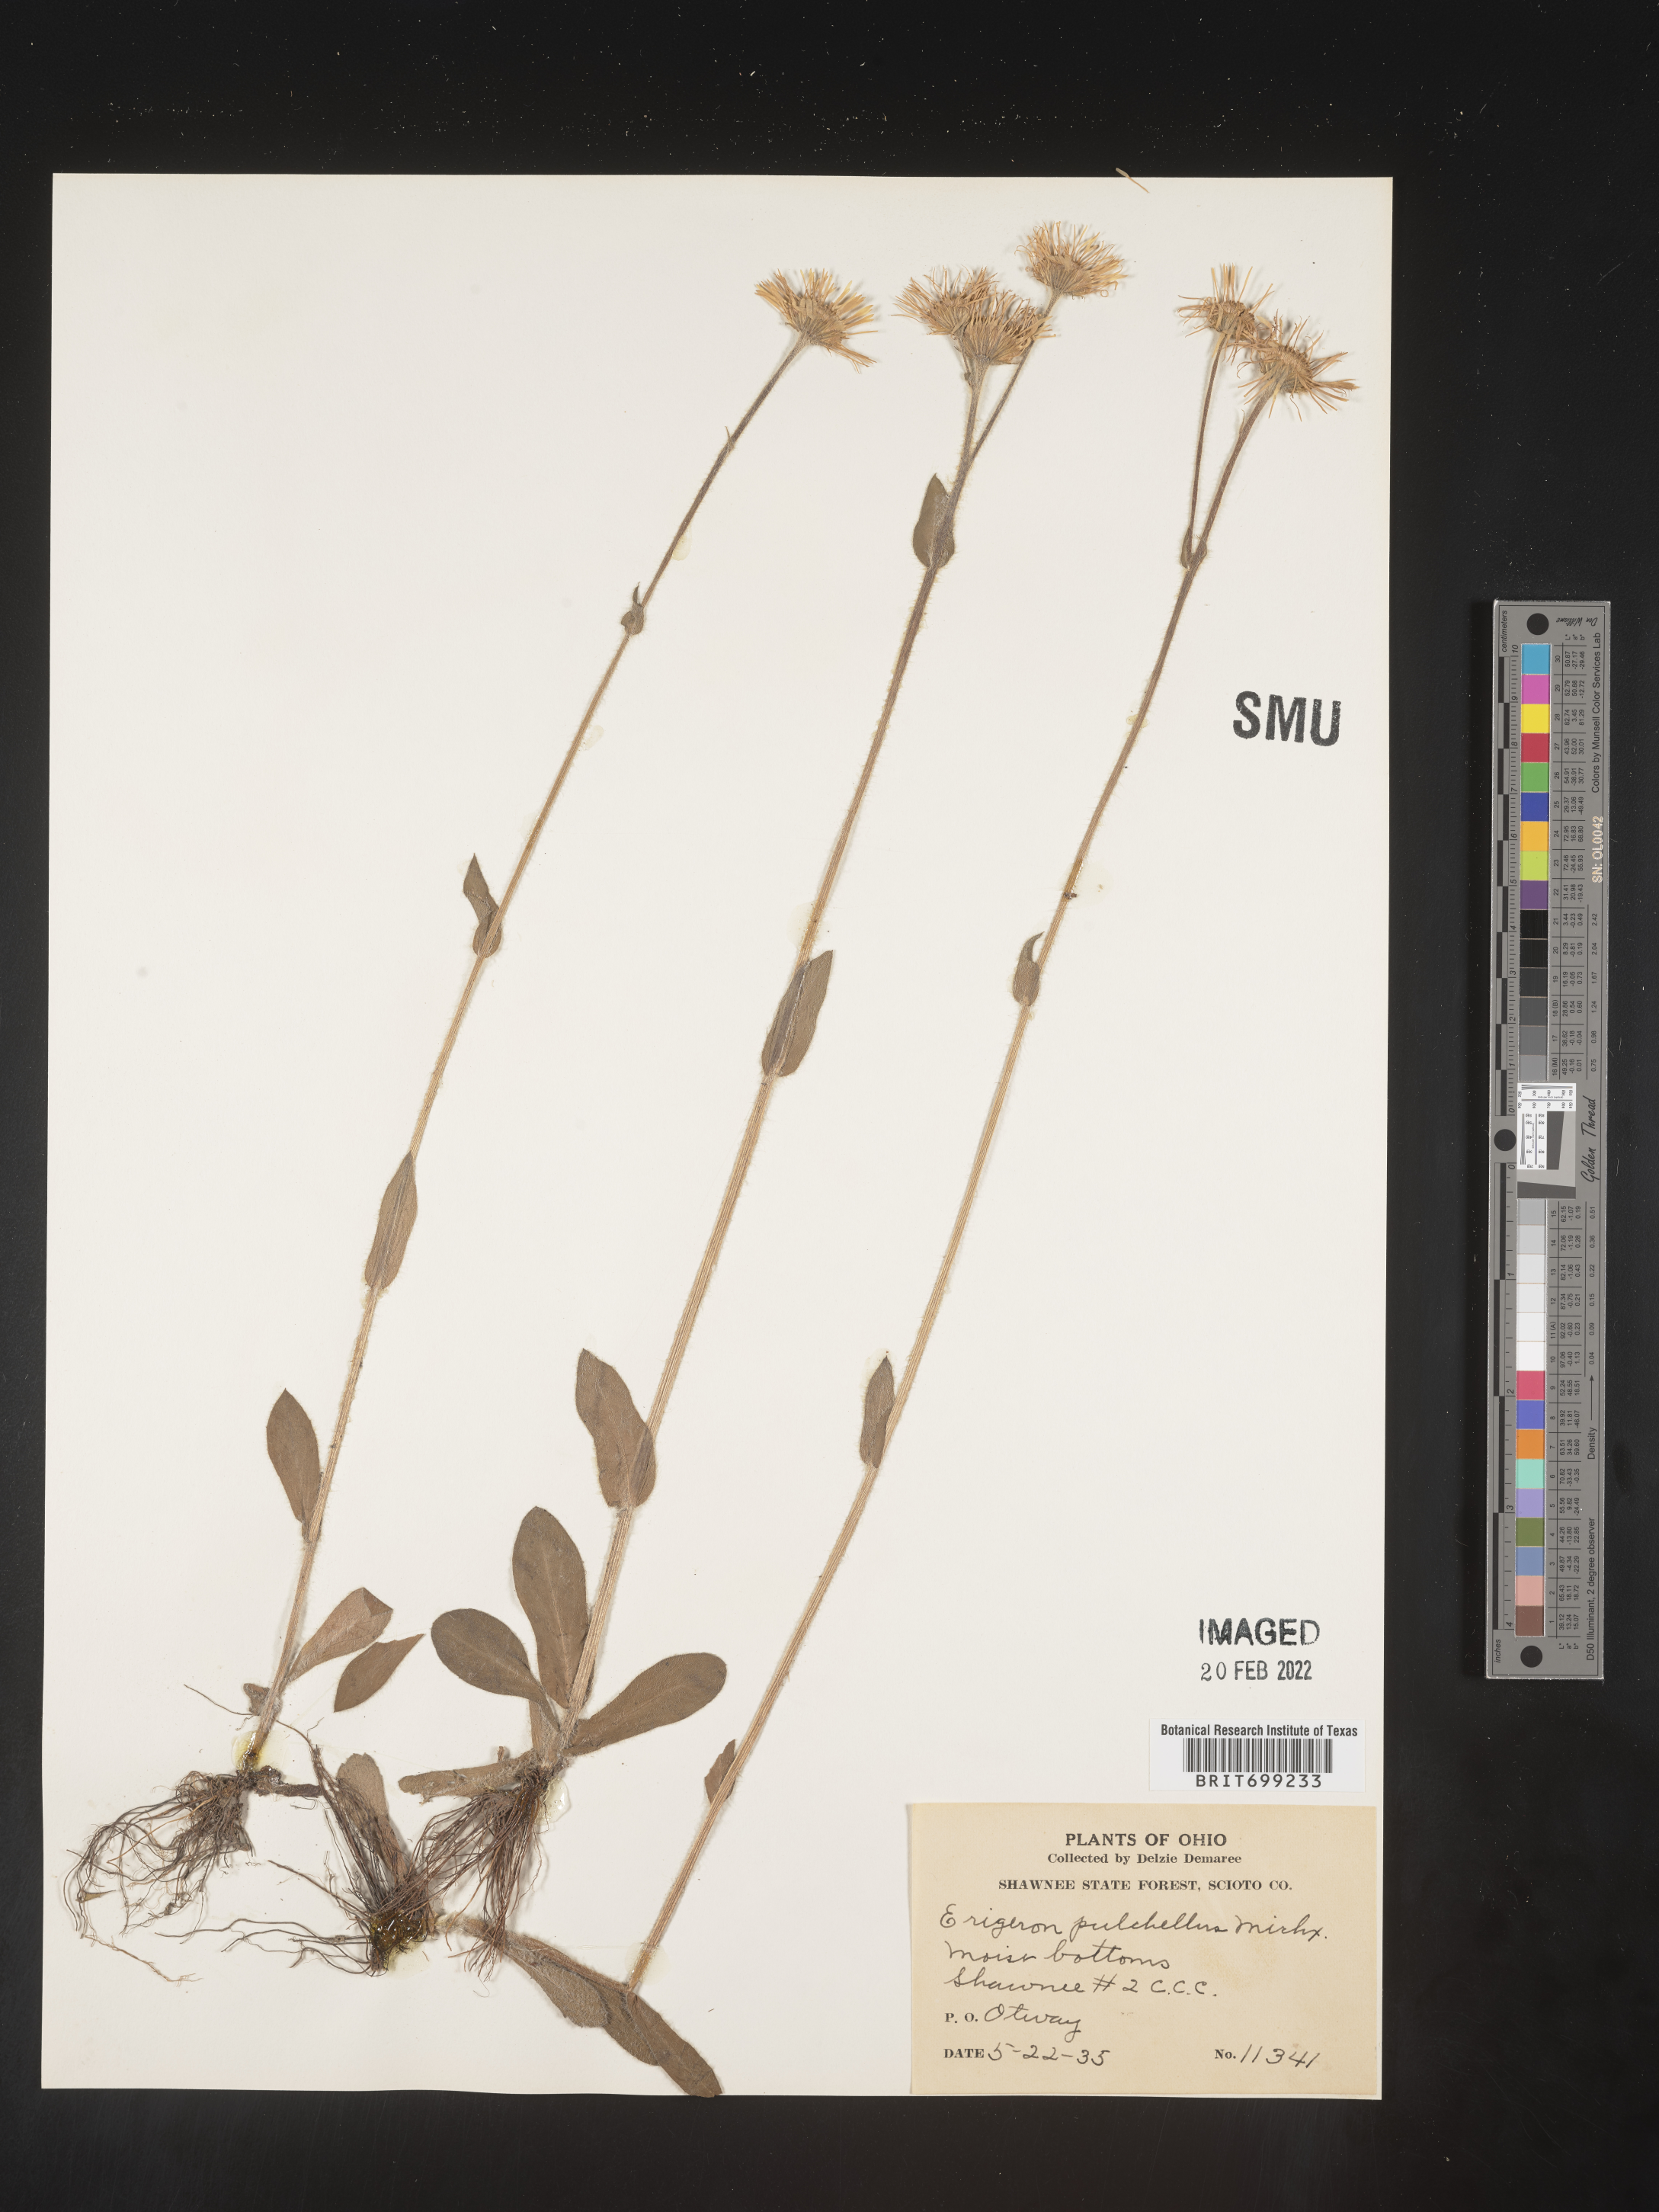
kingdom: Plantae
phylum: Tracheophyta
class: Magnoliopsida
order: Asterales
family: Asteraceae
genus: Erigeron
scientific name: Erigeron pulchellus
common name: Hairy fleabane
